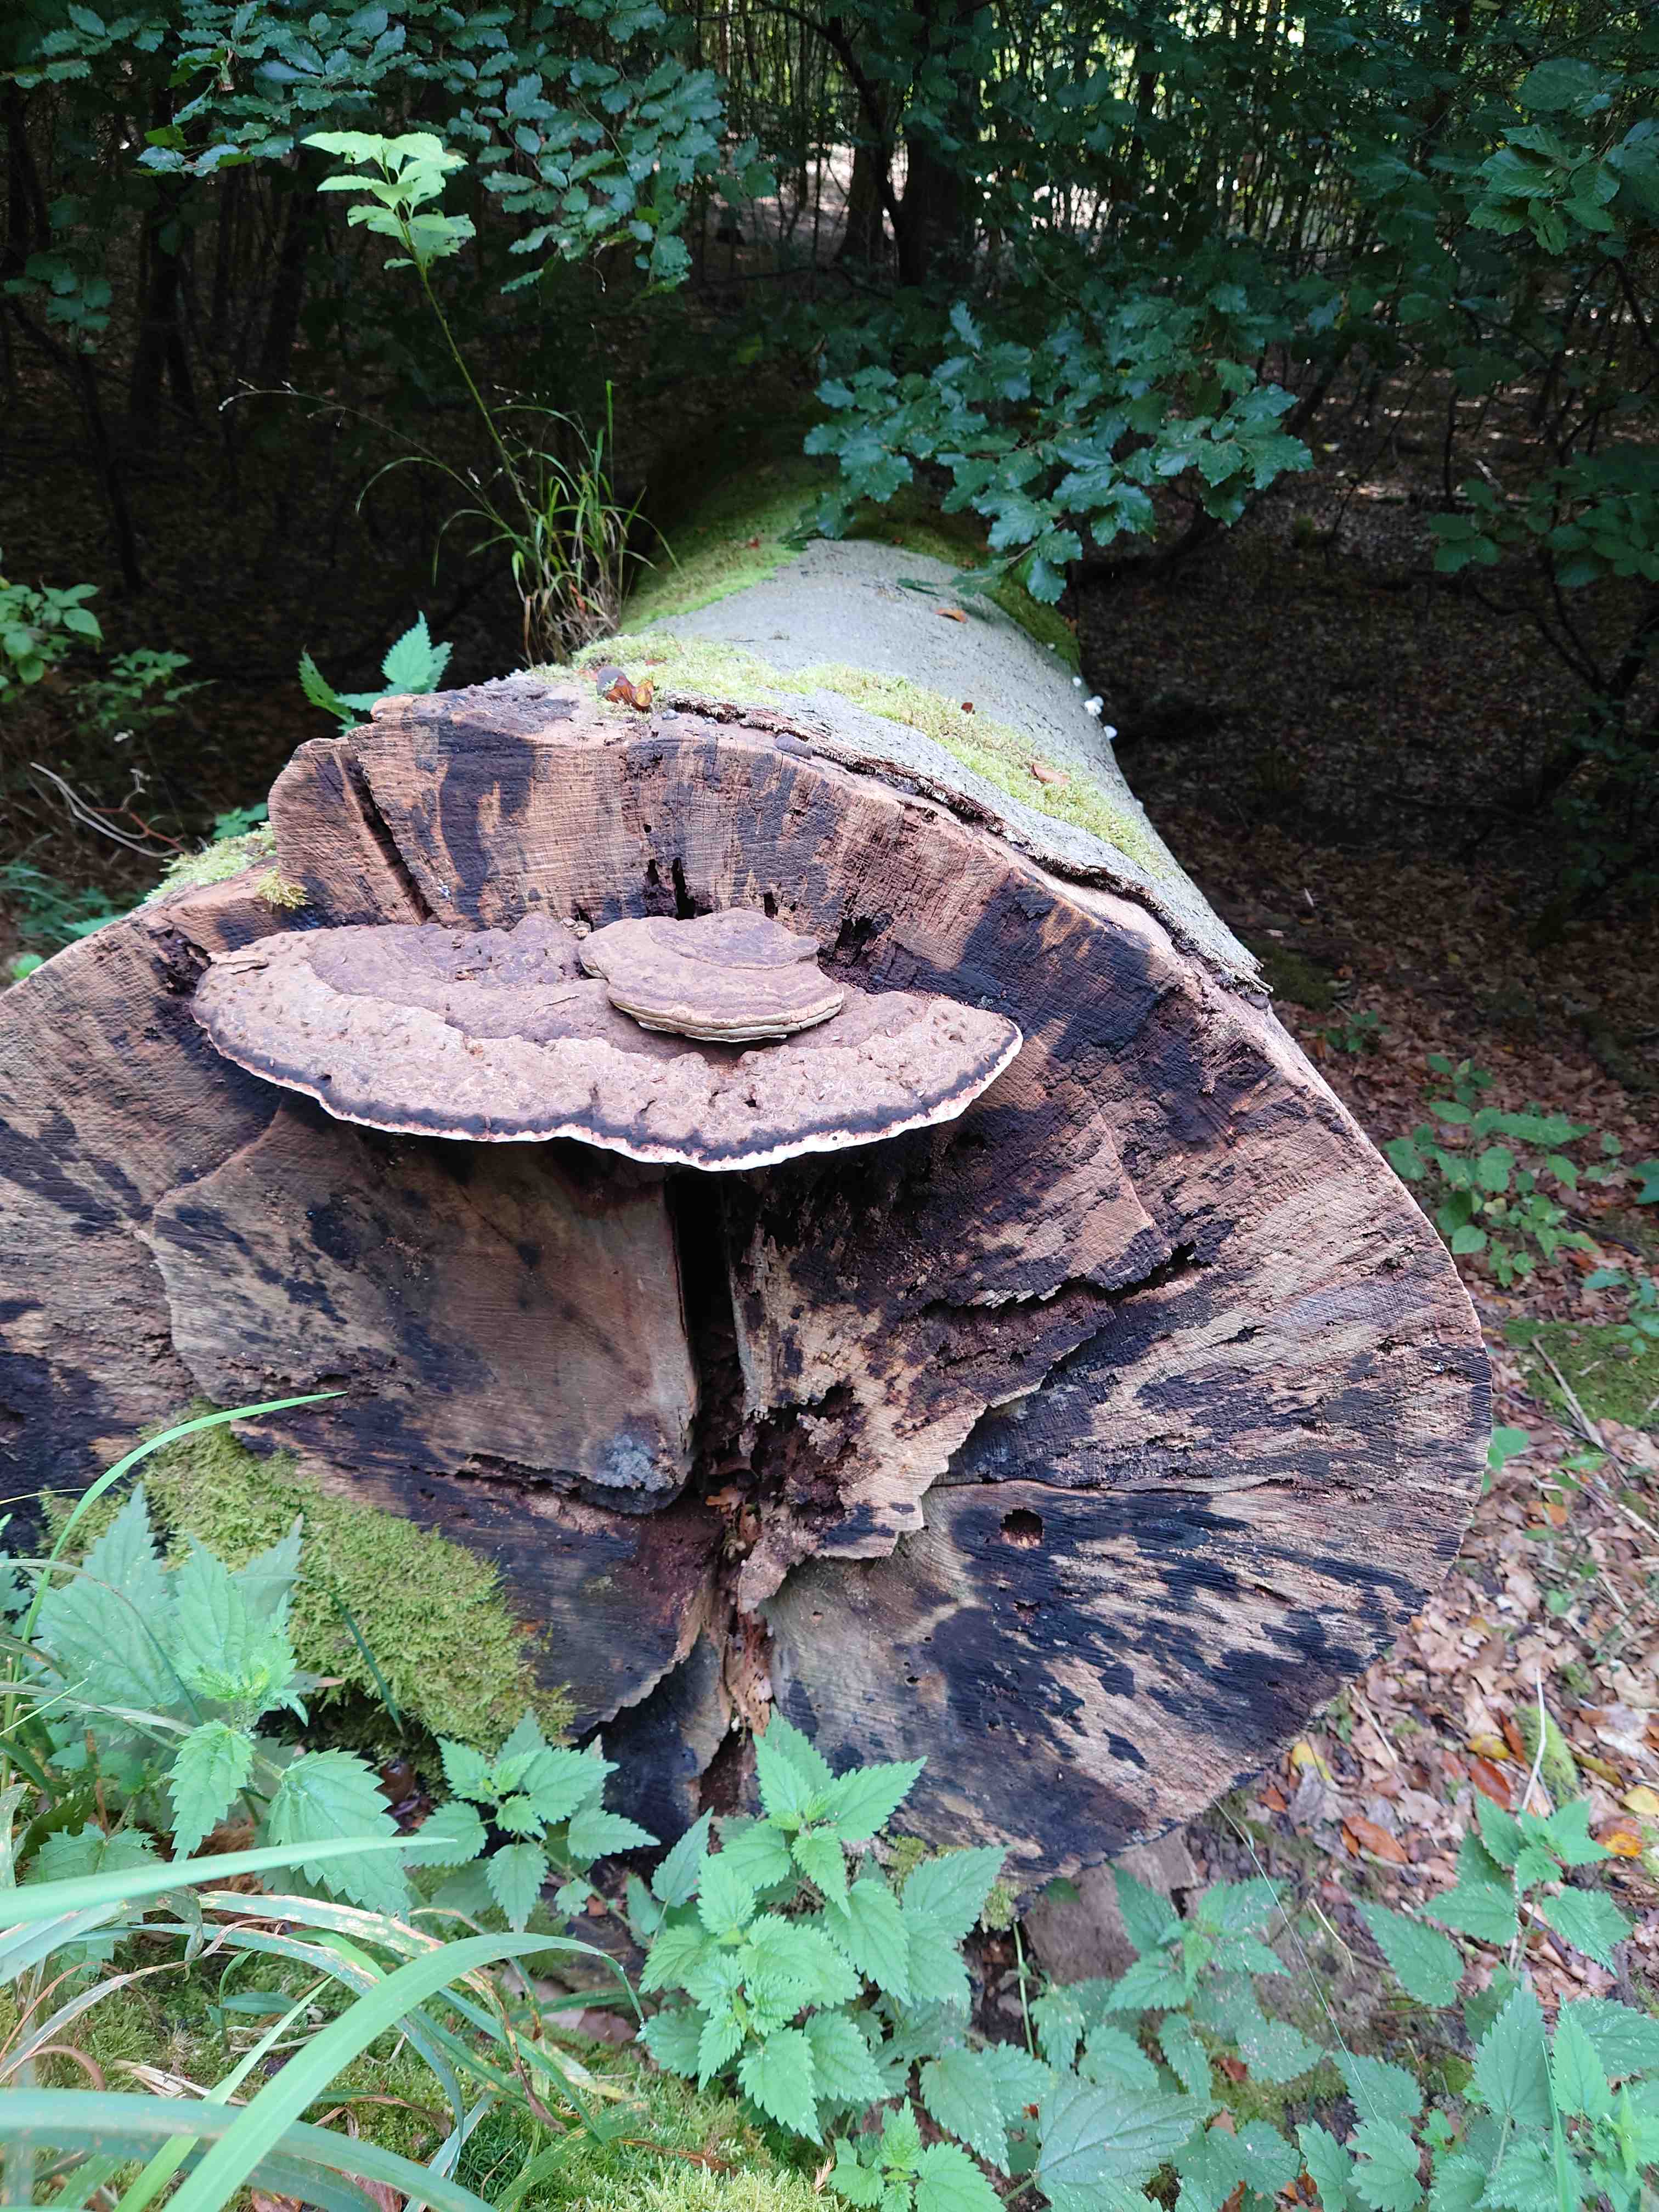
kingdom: Fungi
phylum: Basidiomycota
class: Agaricomycetes
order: Polyporales
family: Polyporaceae
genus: Ganoderma
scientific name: Ganoderma applanatum
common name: flad lakporesvamp
